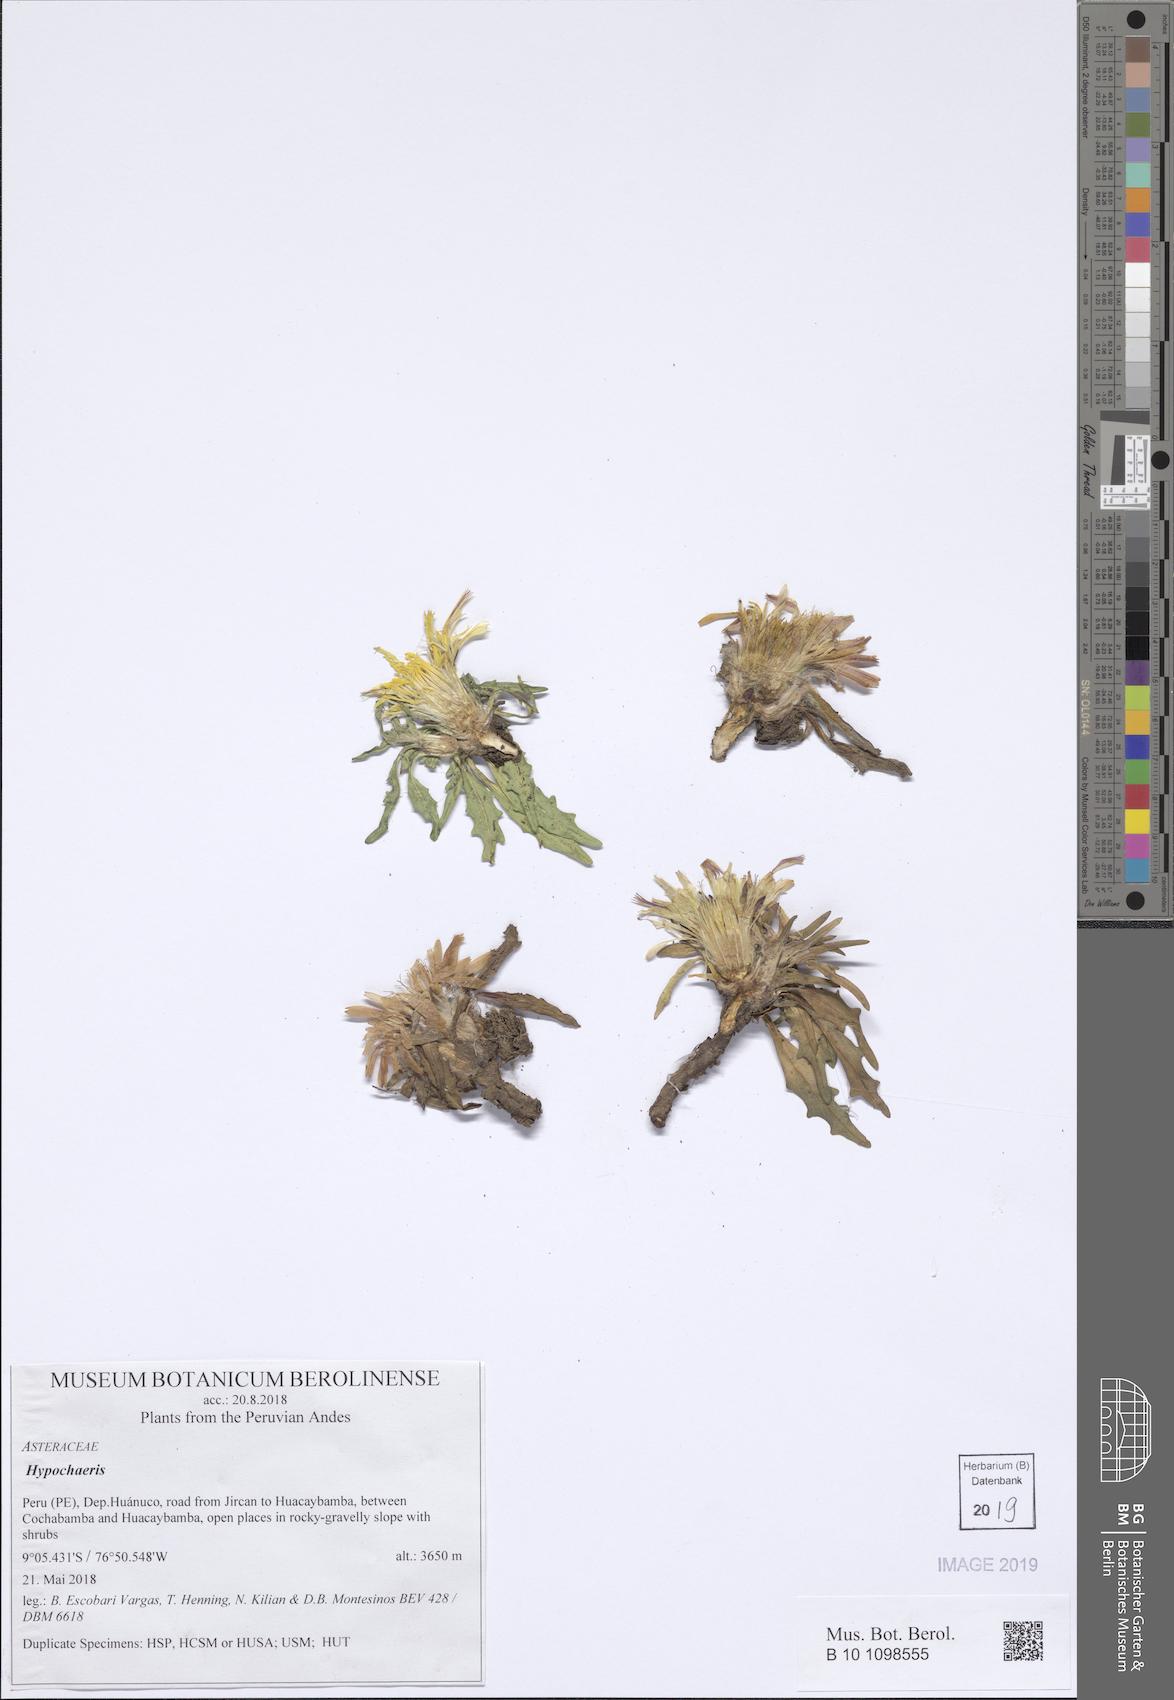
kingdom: Plantae
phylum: Tracheophyta
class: Magnoliopsida
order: Asterales
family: Asteraceae
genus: Hypochaeris
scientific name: Hypochaeris
